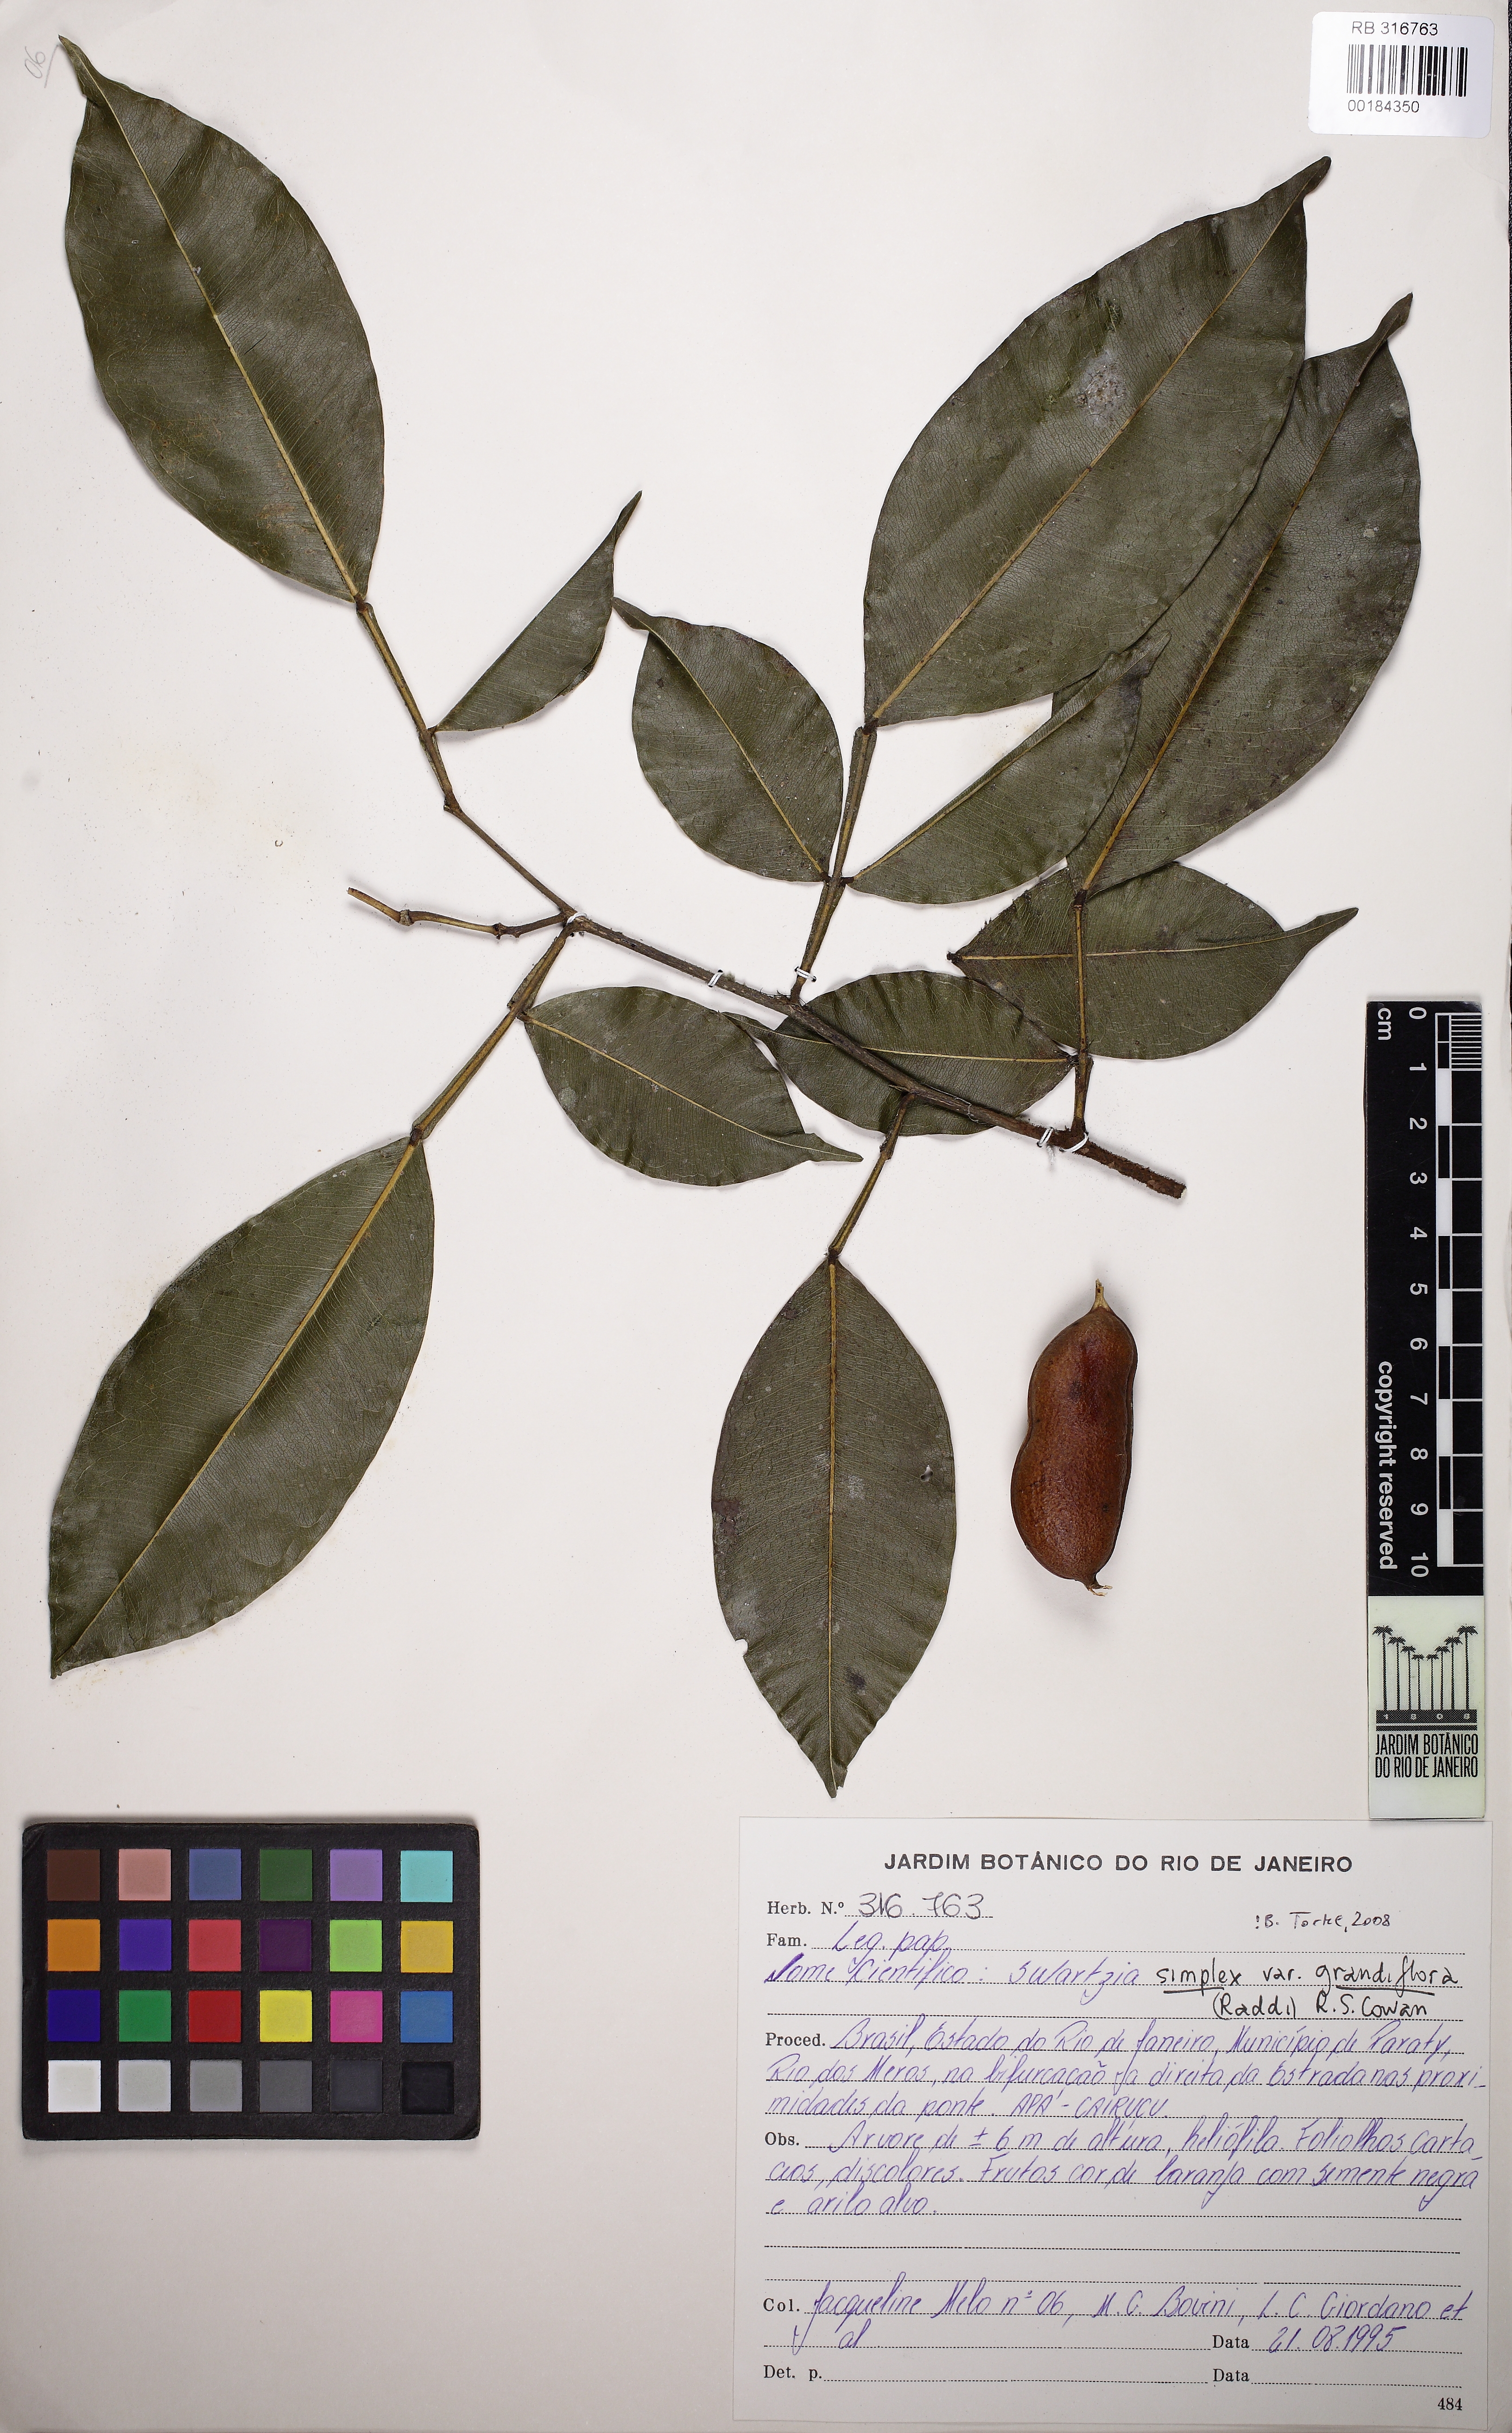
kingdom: Plantae
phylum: Tracheophyta
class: Magnoliopsida
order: Fabales
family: Fabaceae
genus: Swartzia
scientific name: Swartzia simplex
